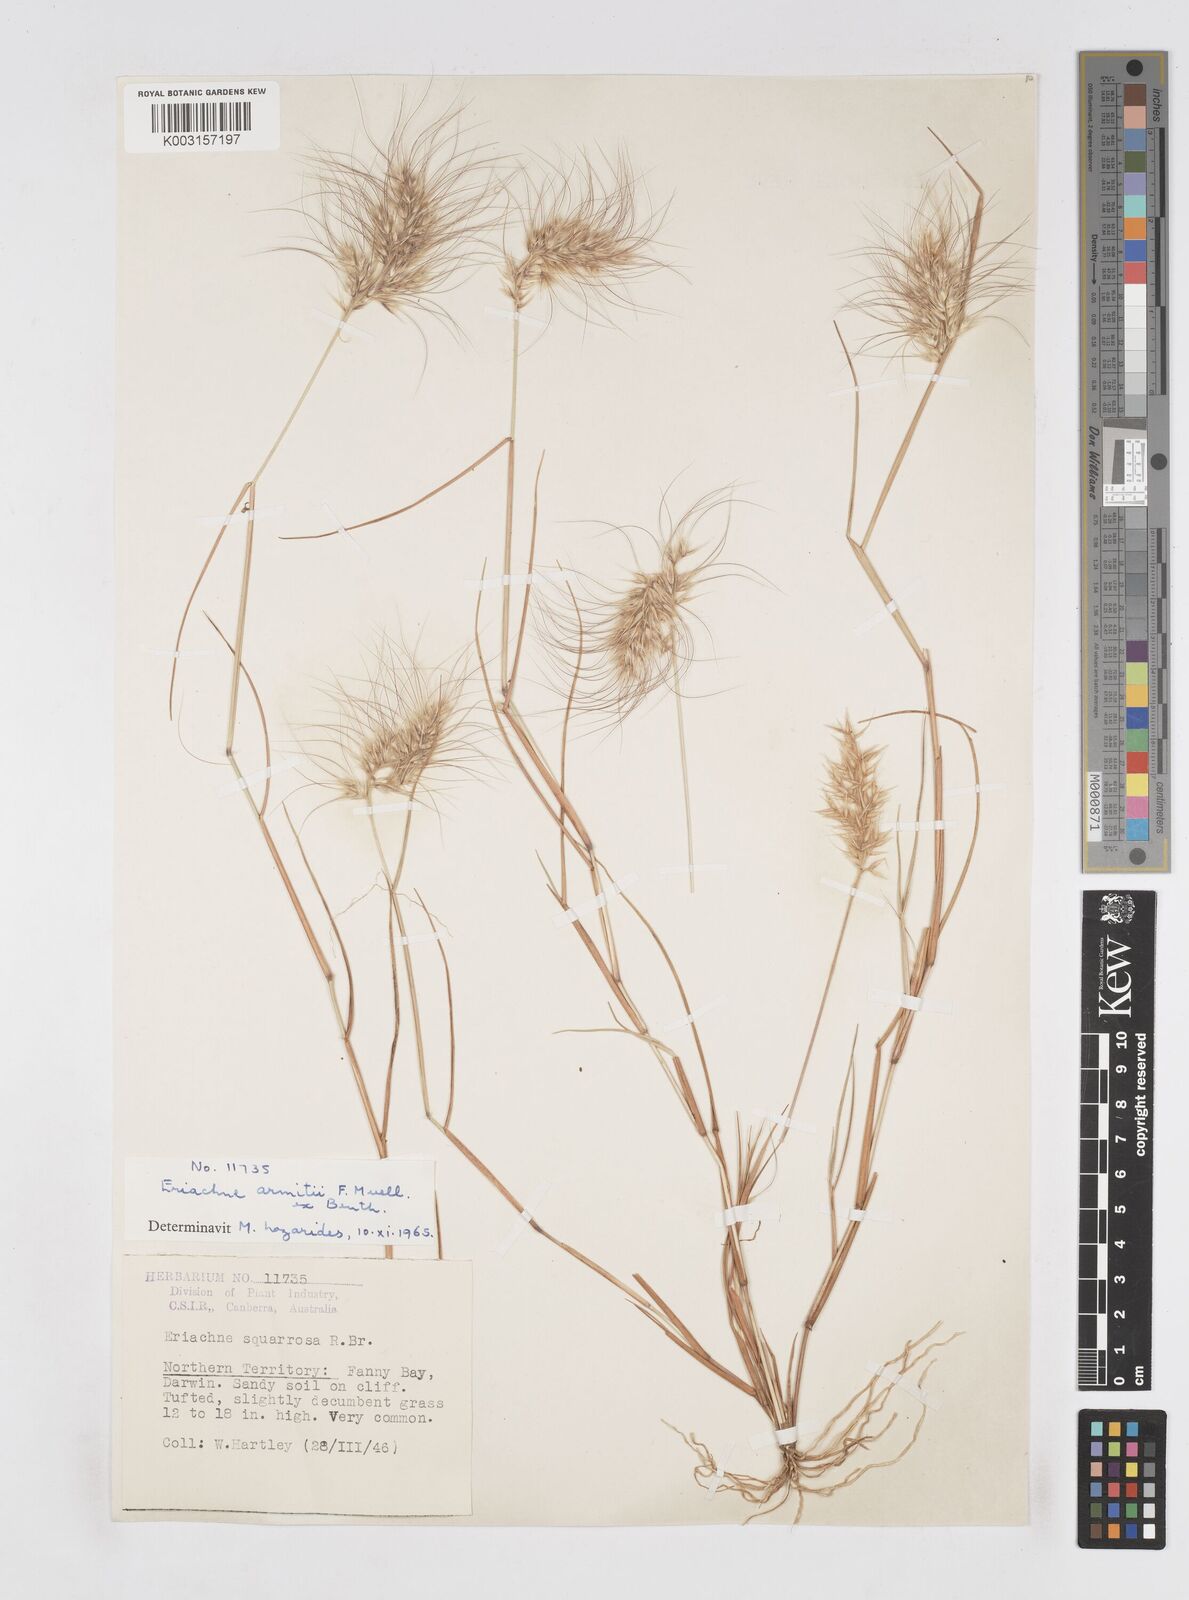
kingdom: Plantae
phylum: Tracheophyta
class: Liliopsida
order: Poales
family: Poaceae
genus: Eriachne
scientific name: Eriachne armitii
